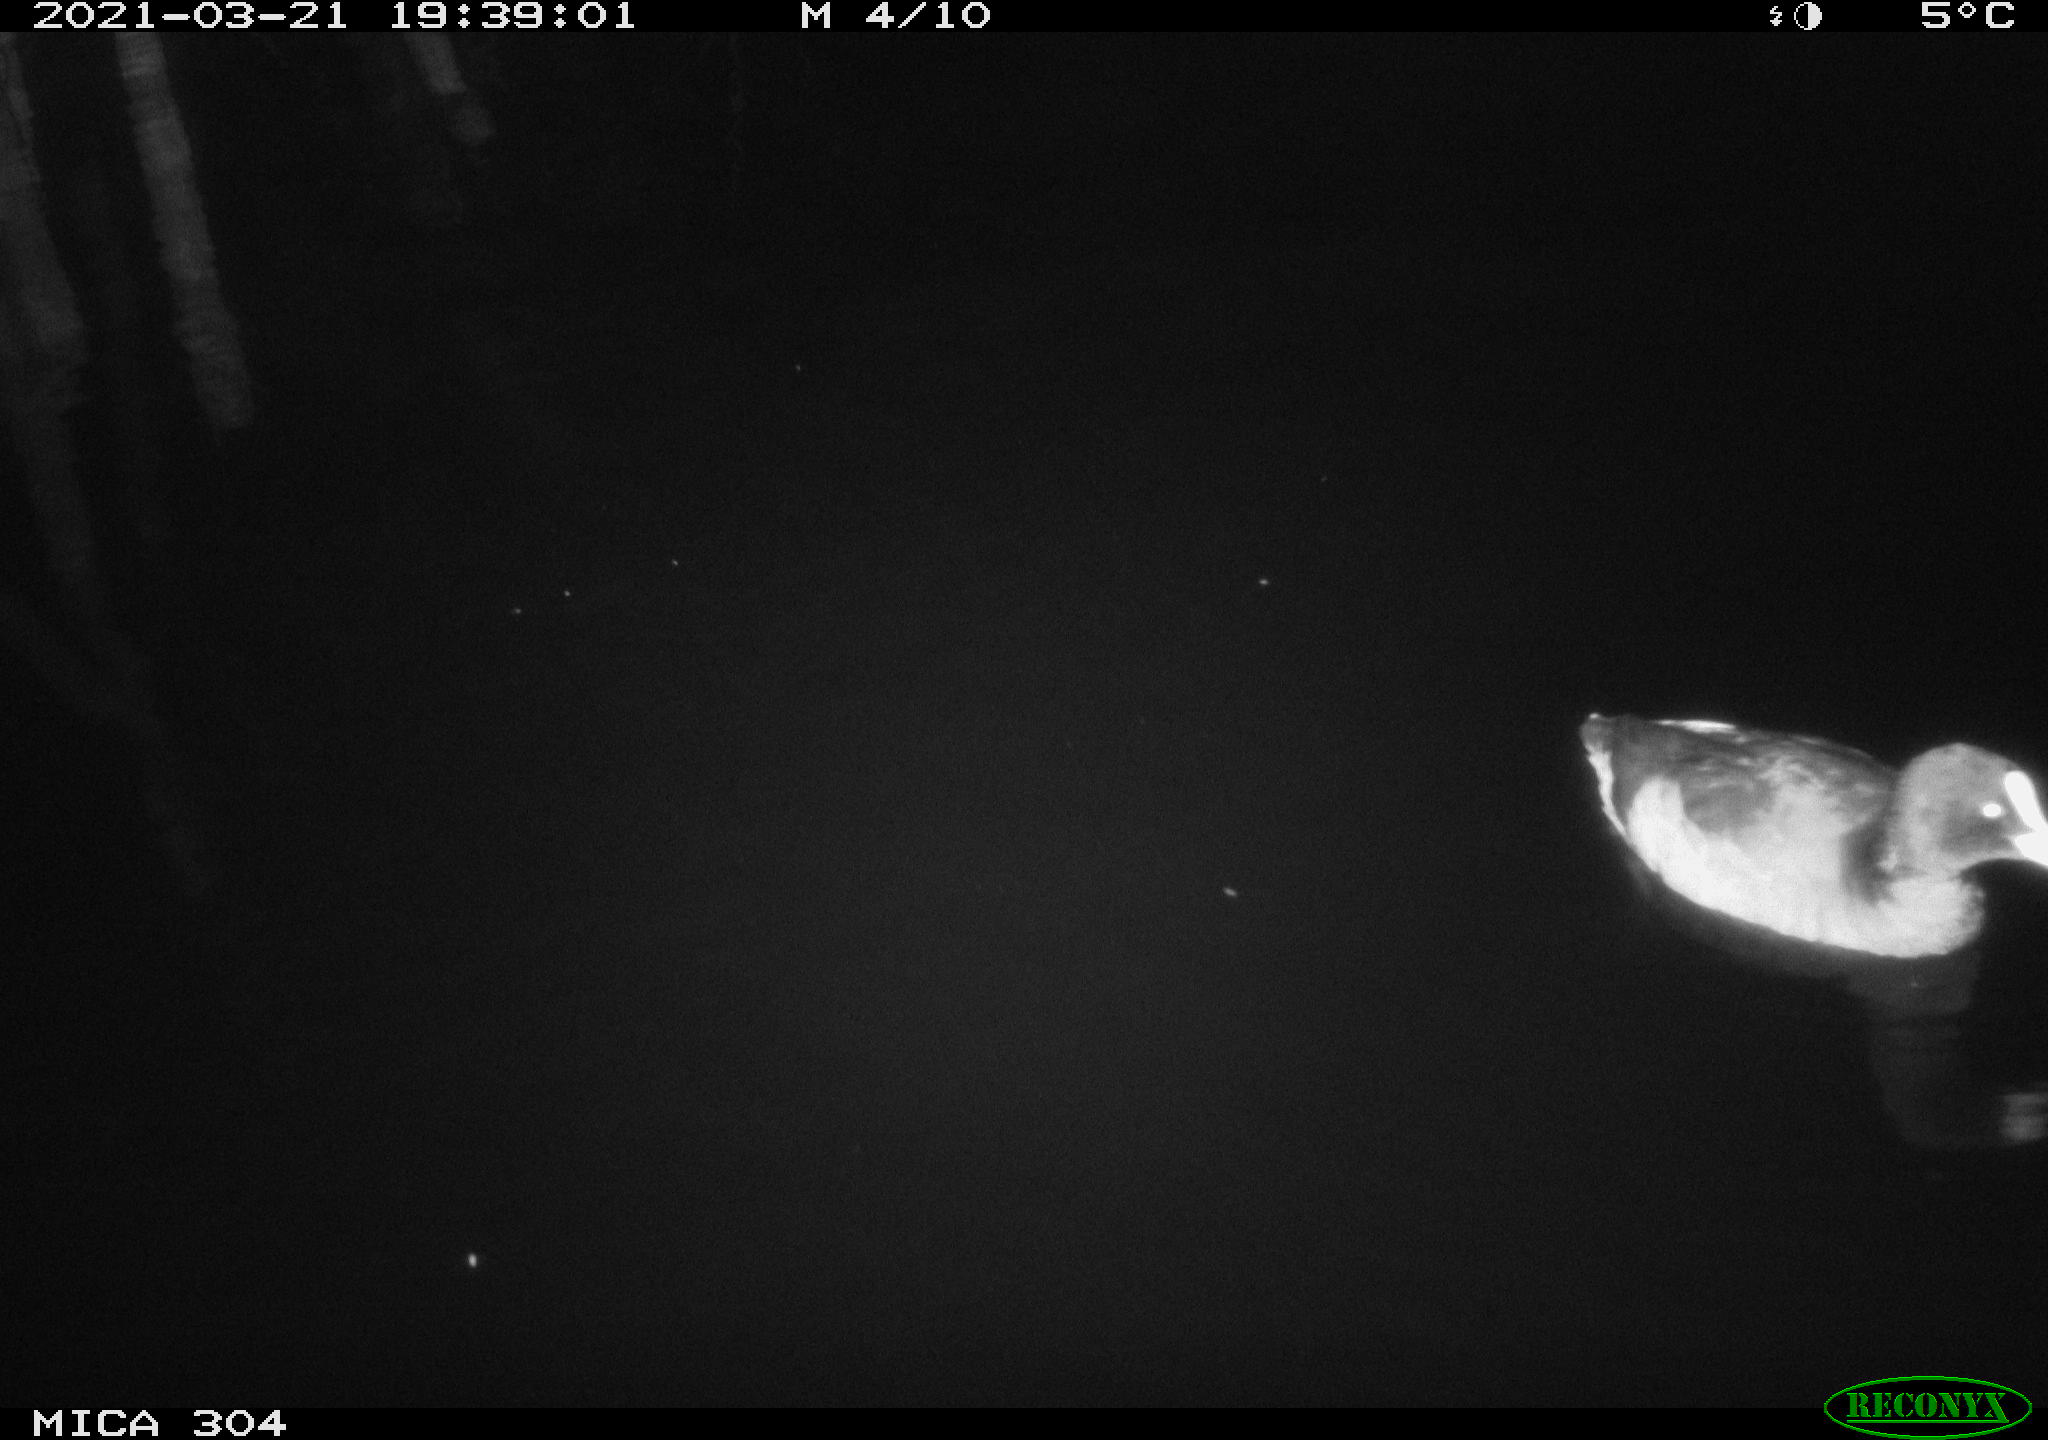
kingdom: Animalia
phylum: Chordata
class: Aves
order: Anseriformes
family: Anatidae
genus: Anas
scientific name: Anas platyrhynchos
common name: Mallard
